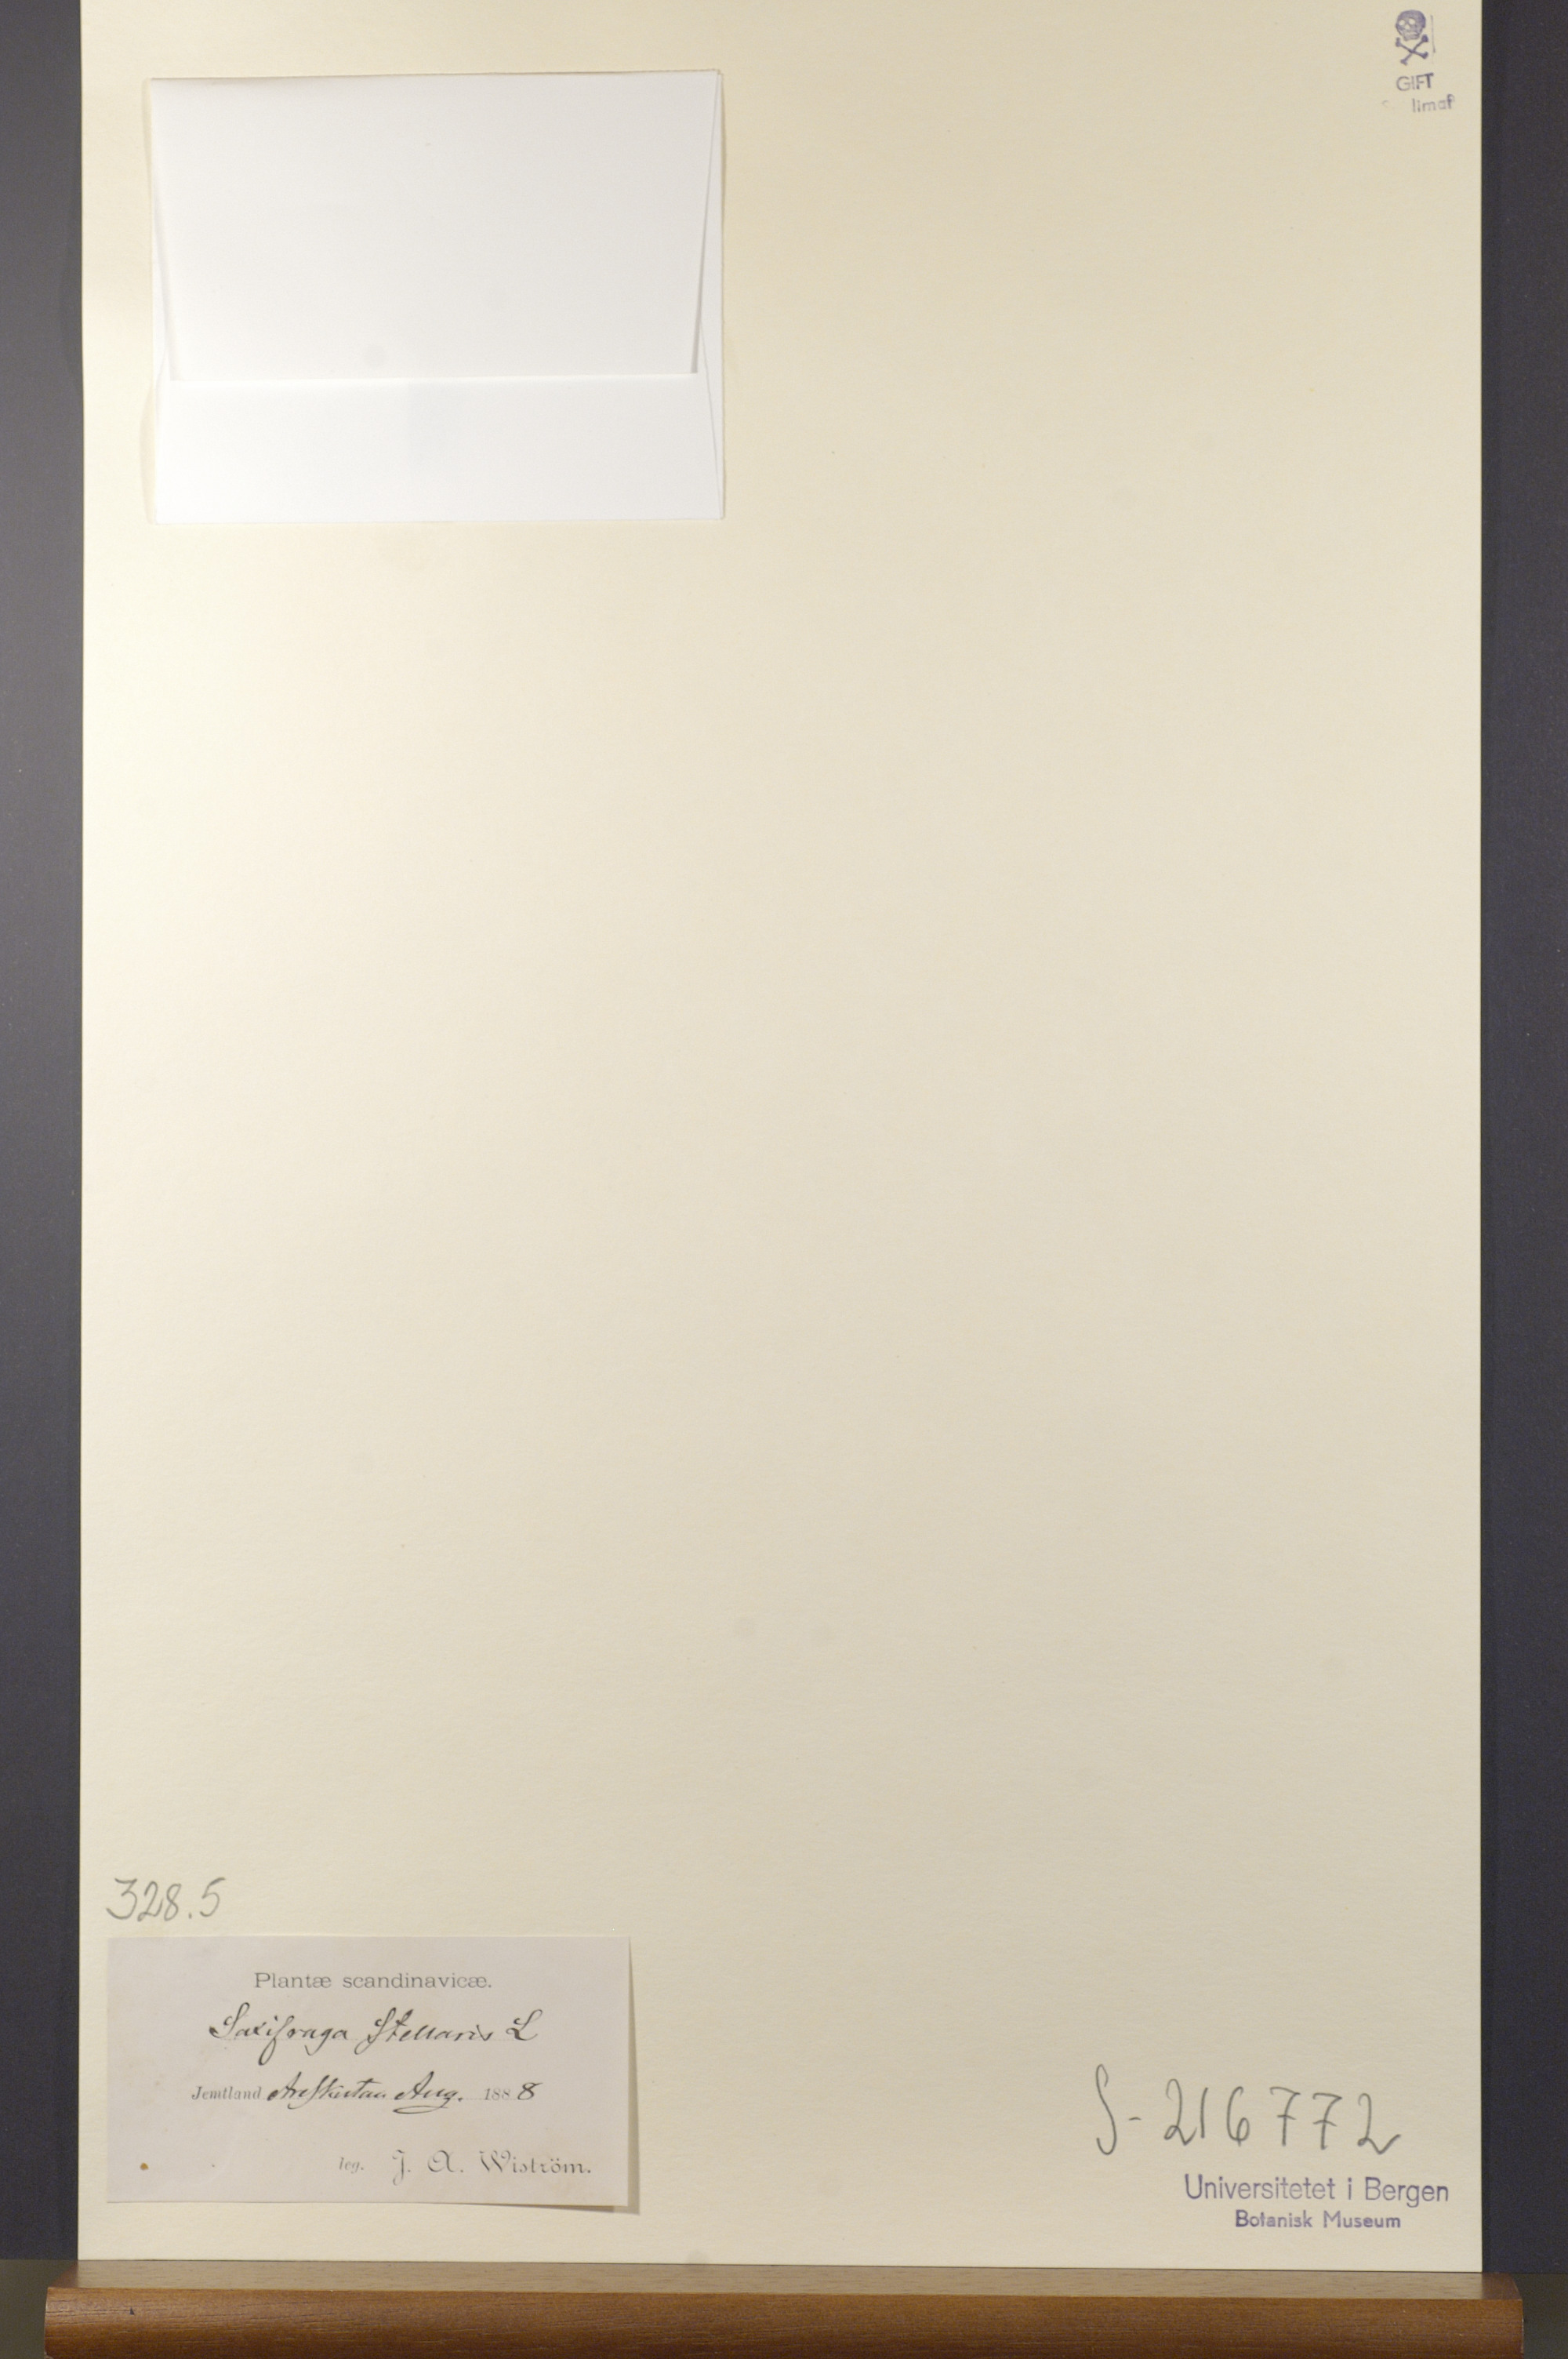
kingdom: Plantae
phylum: Tracheophyta
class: Magnoliopsida
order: Saxifragales
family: Saxifragaceae
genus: Micranthes
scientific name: Micranthes stellaris
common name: Starry saxifrage
